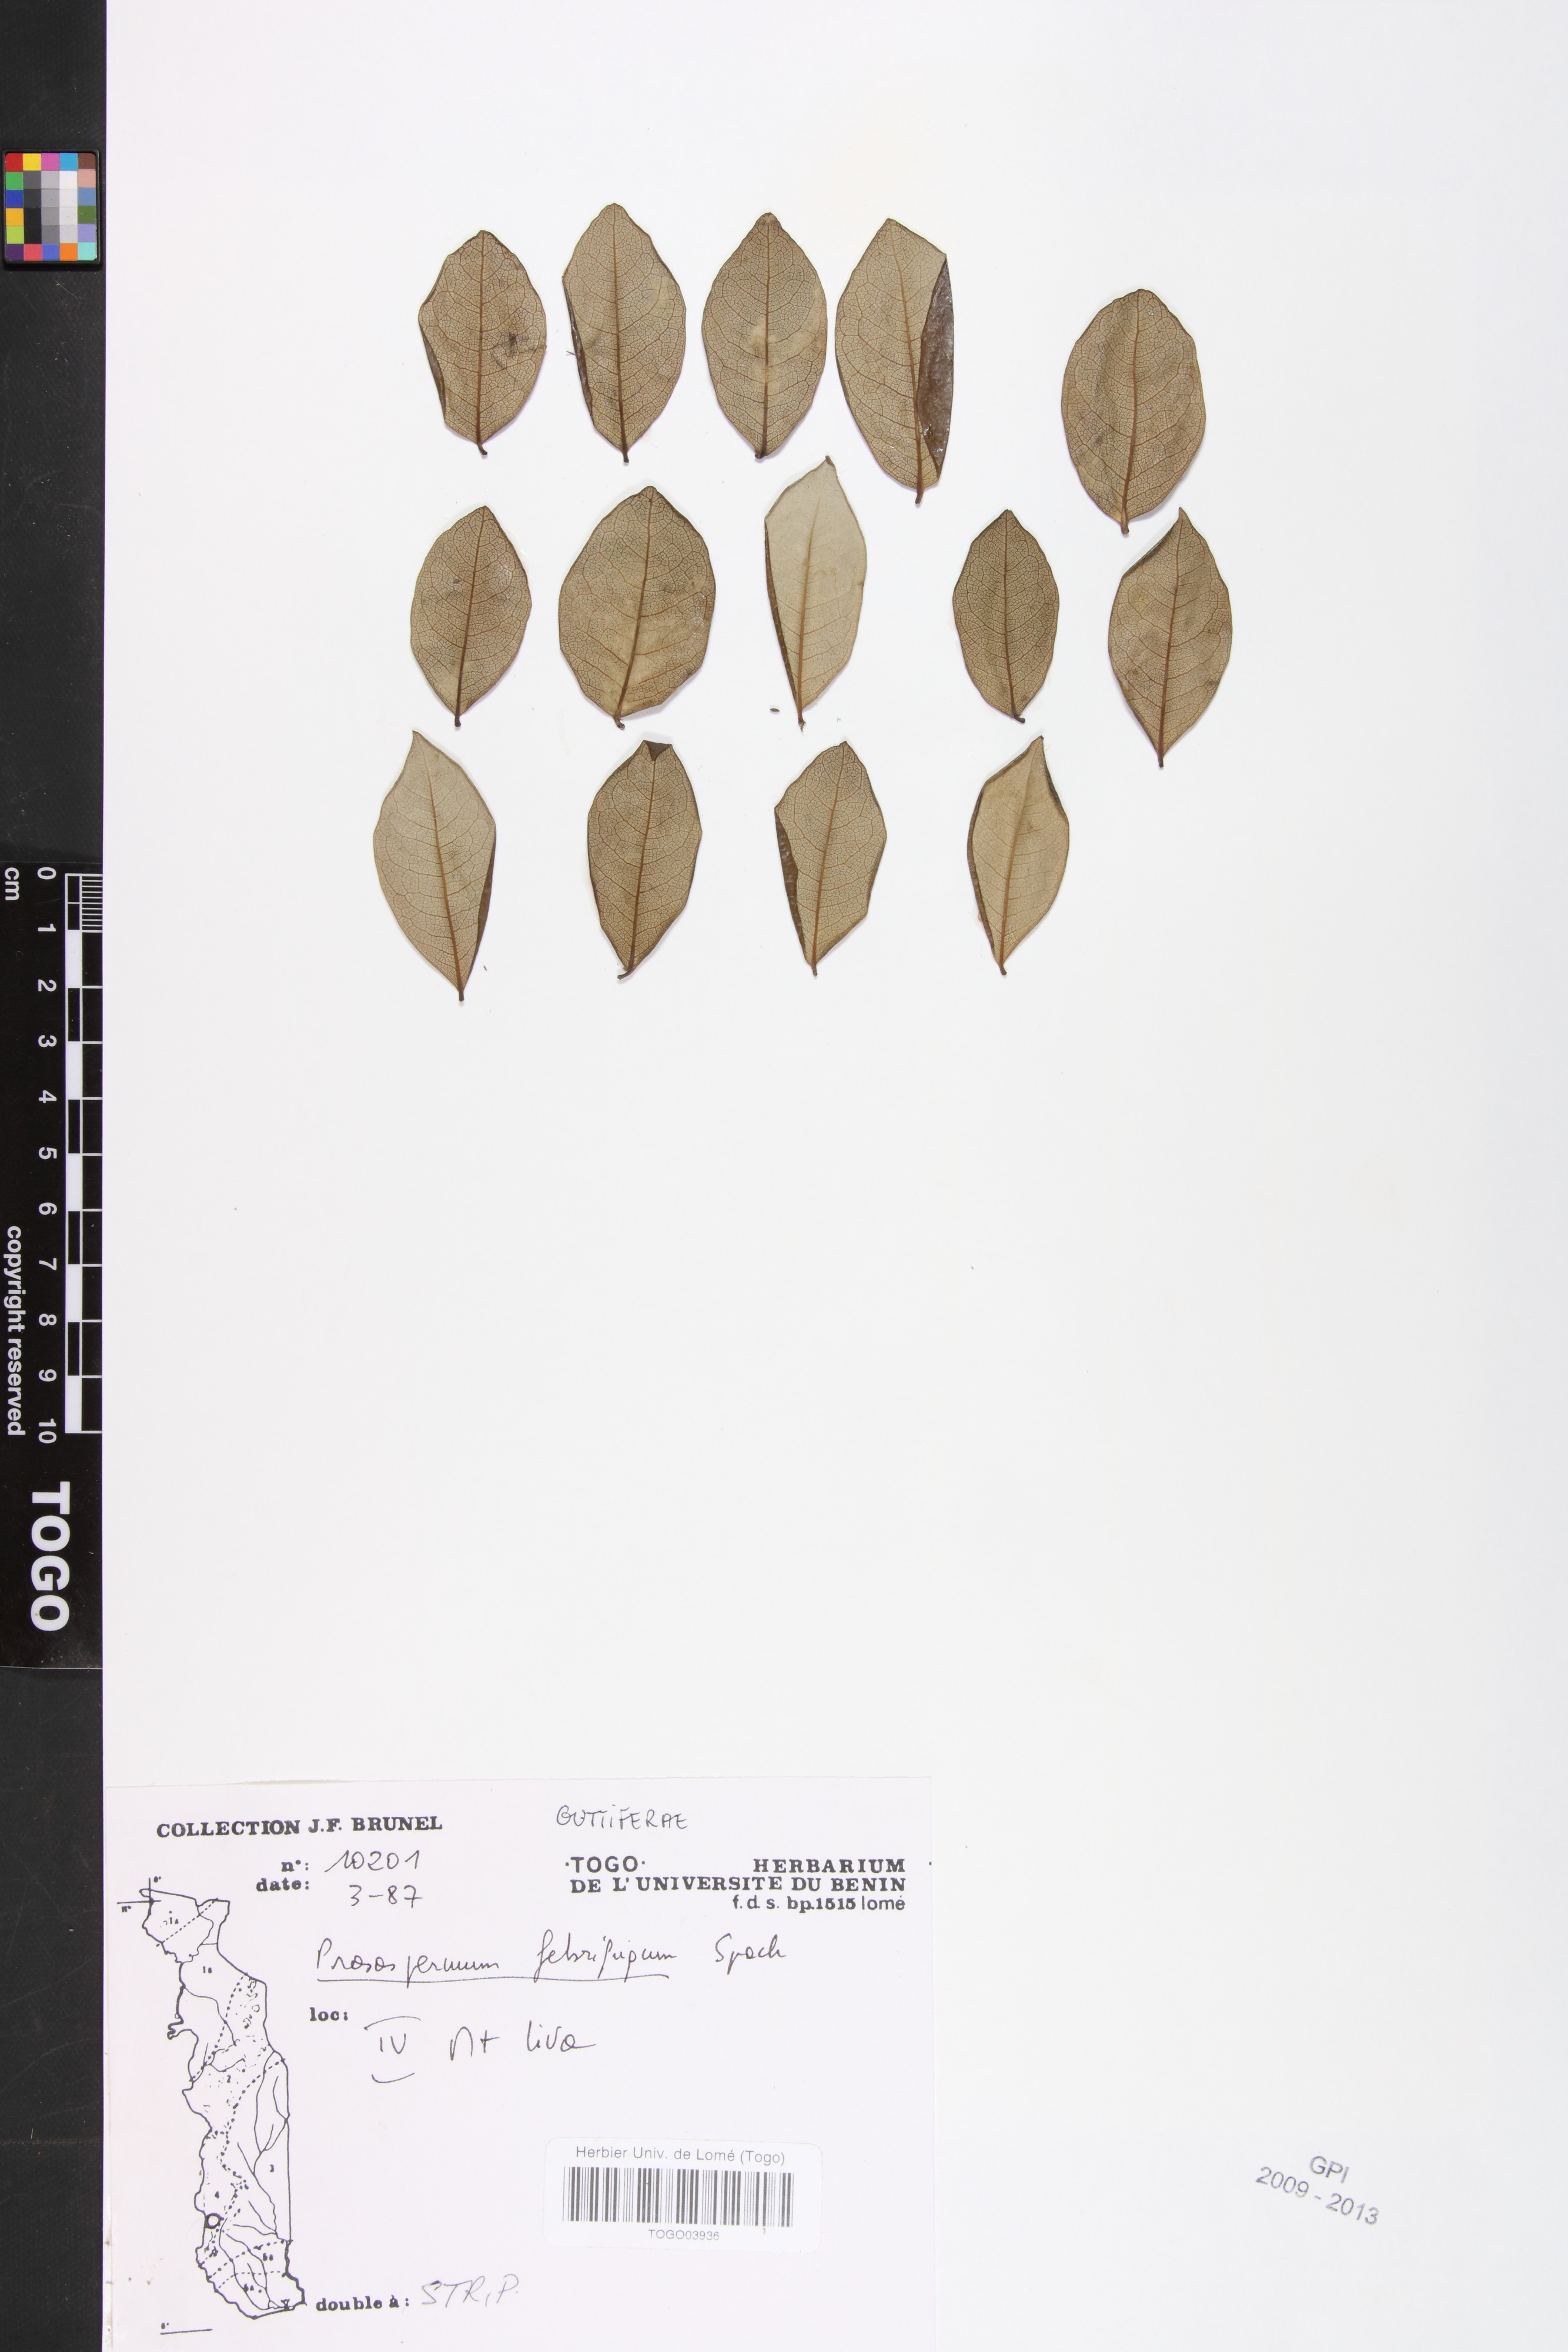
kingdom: Plantae
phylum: Tracheophyta
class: Magnoliopsida
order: Malpighiales
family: Hypericaceae
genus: Psorospermum
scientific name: Psorospermum febrifugum
